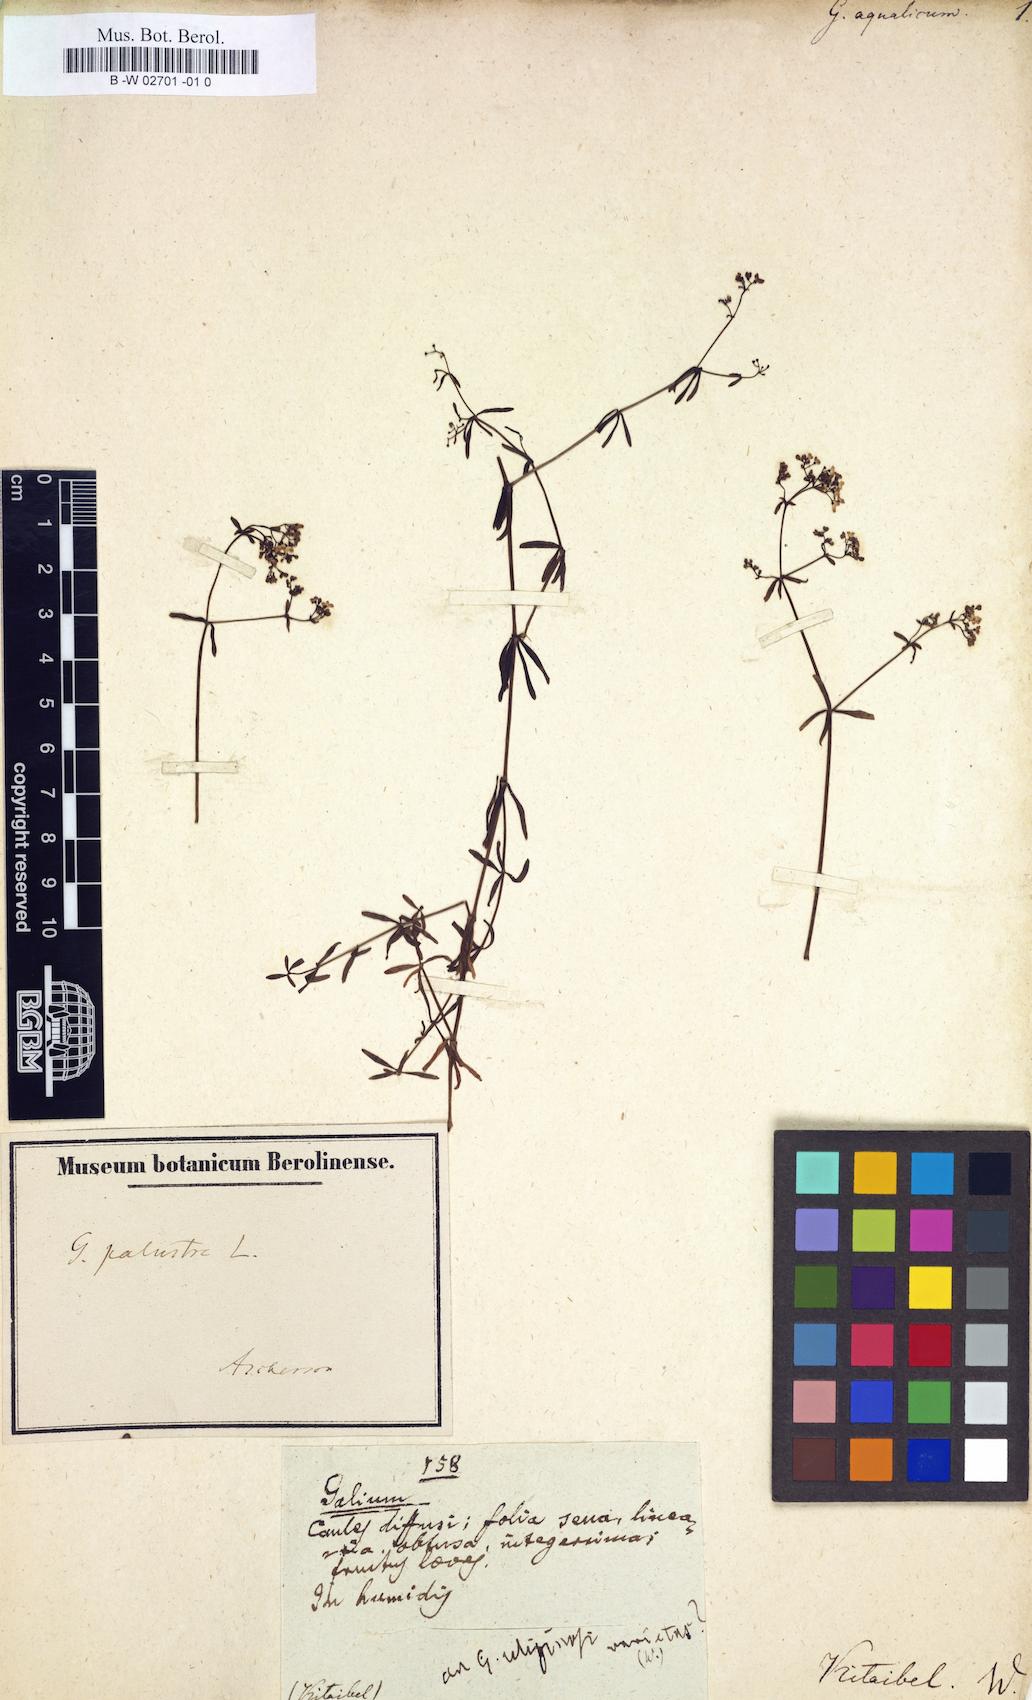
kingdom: Plantae
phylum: Tracheophyta
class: Magnoliopsida
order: Gentianales
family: Rubiaceae
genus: Galium
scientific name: Galium uliginosum
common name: Fen bedstraw
